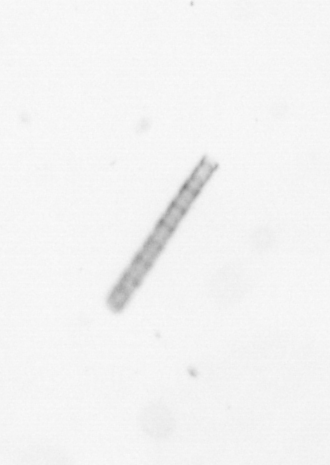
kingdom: Chromista
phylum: Ochrophyta
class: Bacillariophyceae
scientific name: Bacillariophyceae
